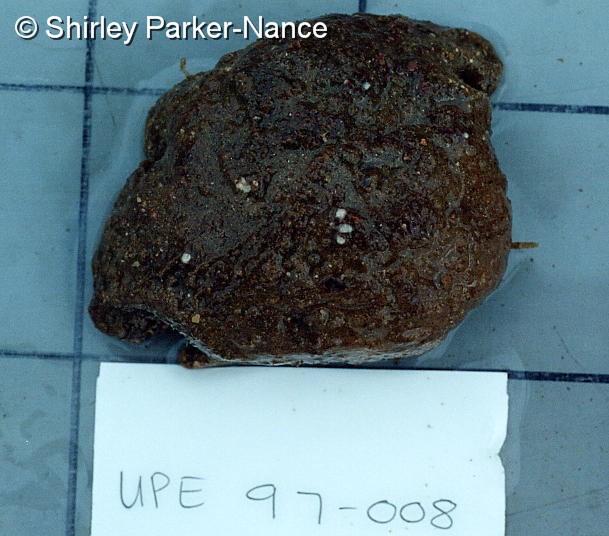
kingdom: Animalia
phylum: Chordata
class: Ascidiacea
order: Aplousobranchia
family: Polyclinidae
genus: Aplidium
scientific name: Aplidium
